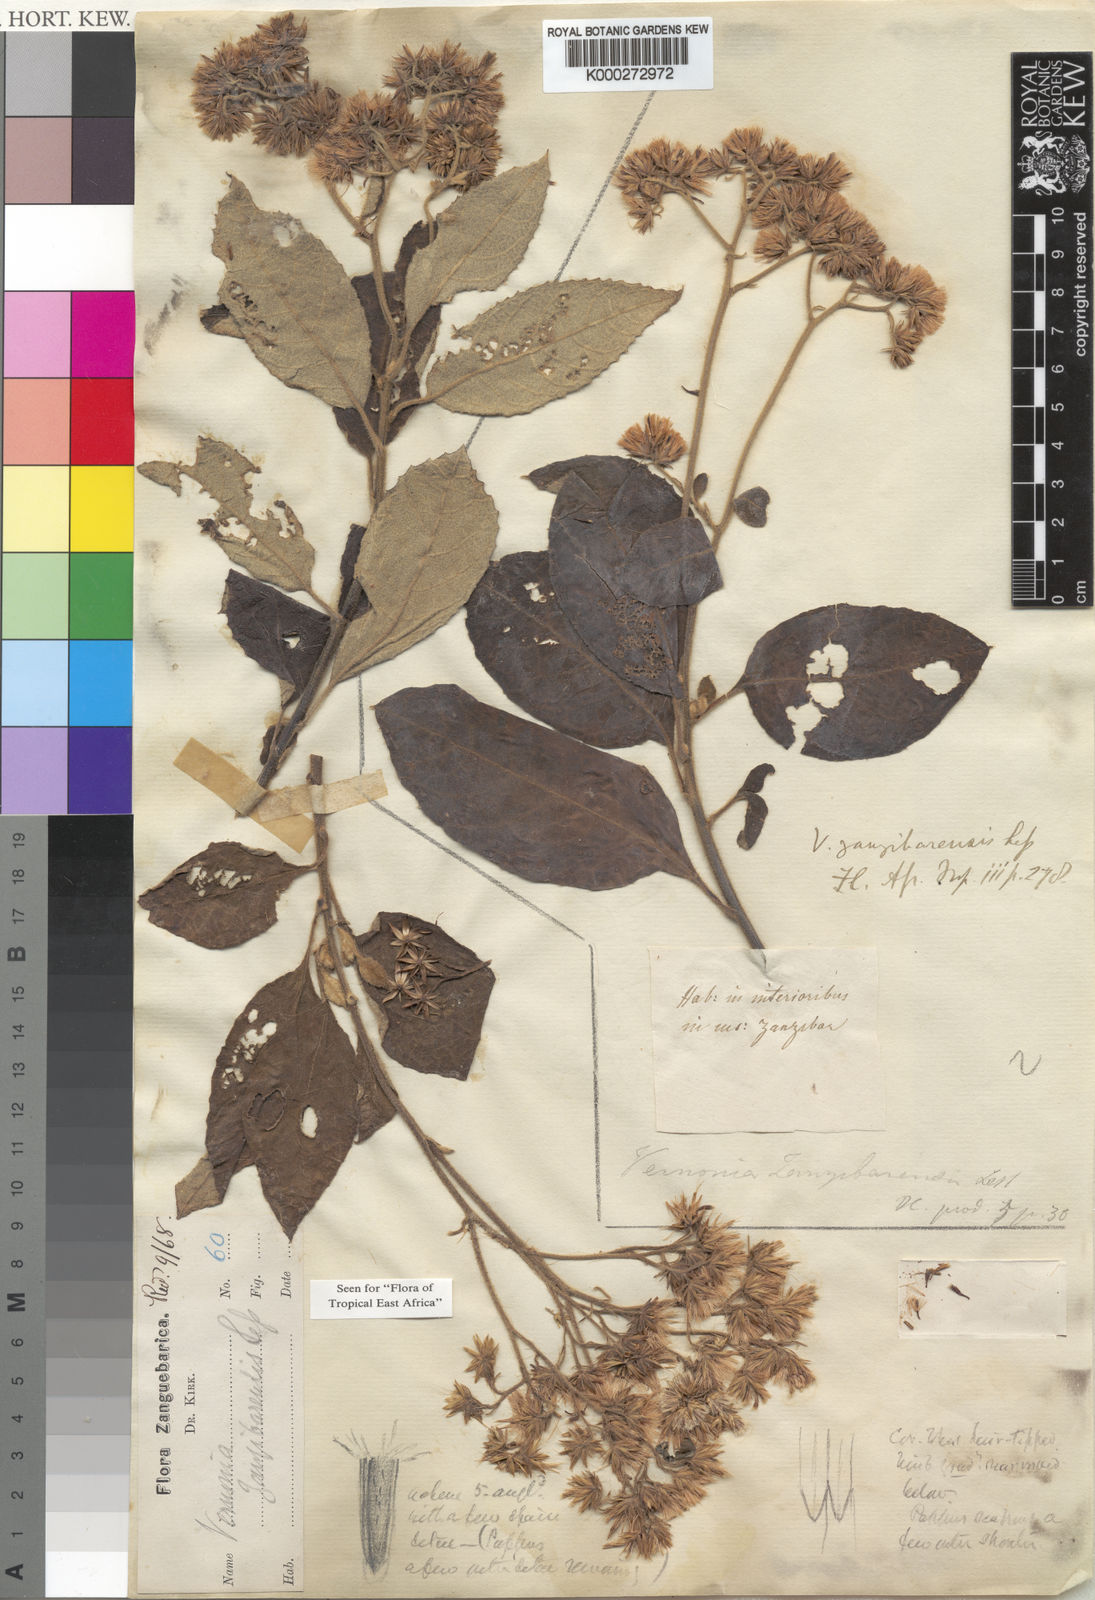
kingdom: Plantae
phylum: Tracheophyta
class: Magnoliopsida
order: Asterales
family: Asteraceae
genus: Jeffreycia
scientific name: Jeffreycia zanzibarensis
